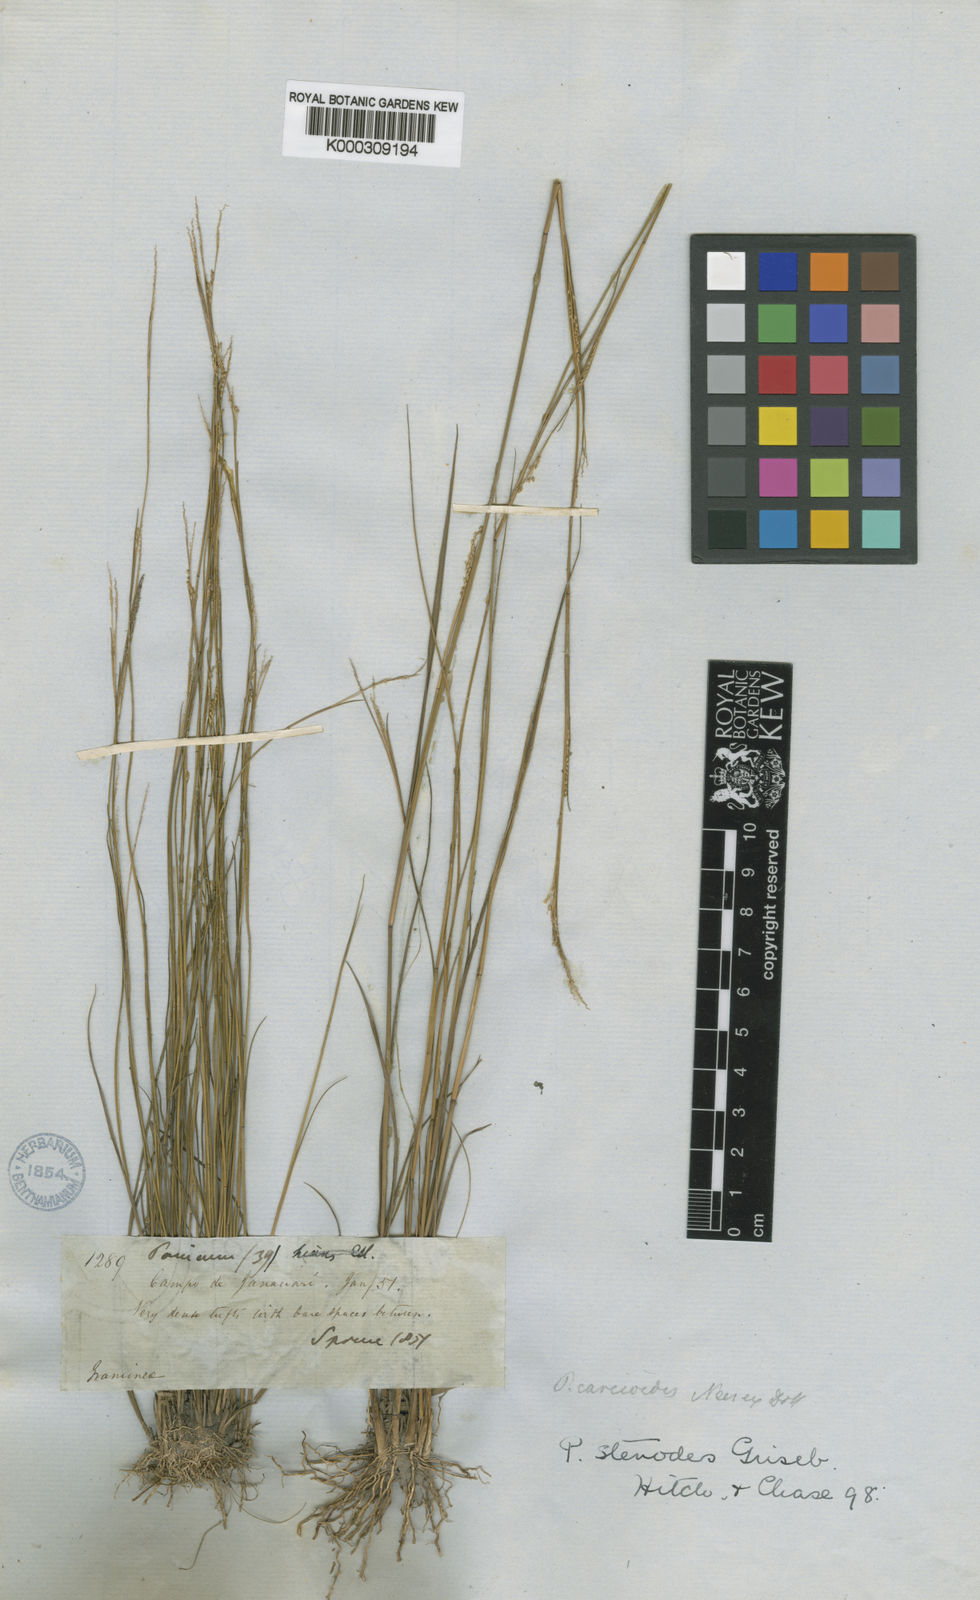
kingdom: Plantae
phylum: Tracheophyta
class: Liliopsida
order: Poales
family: Poaceae
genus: Coleataenia
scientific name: Coleataenia stenodes
